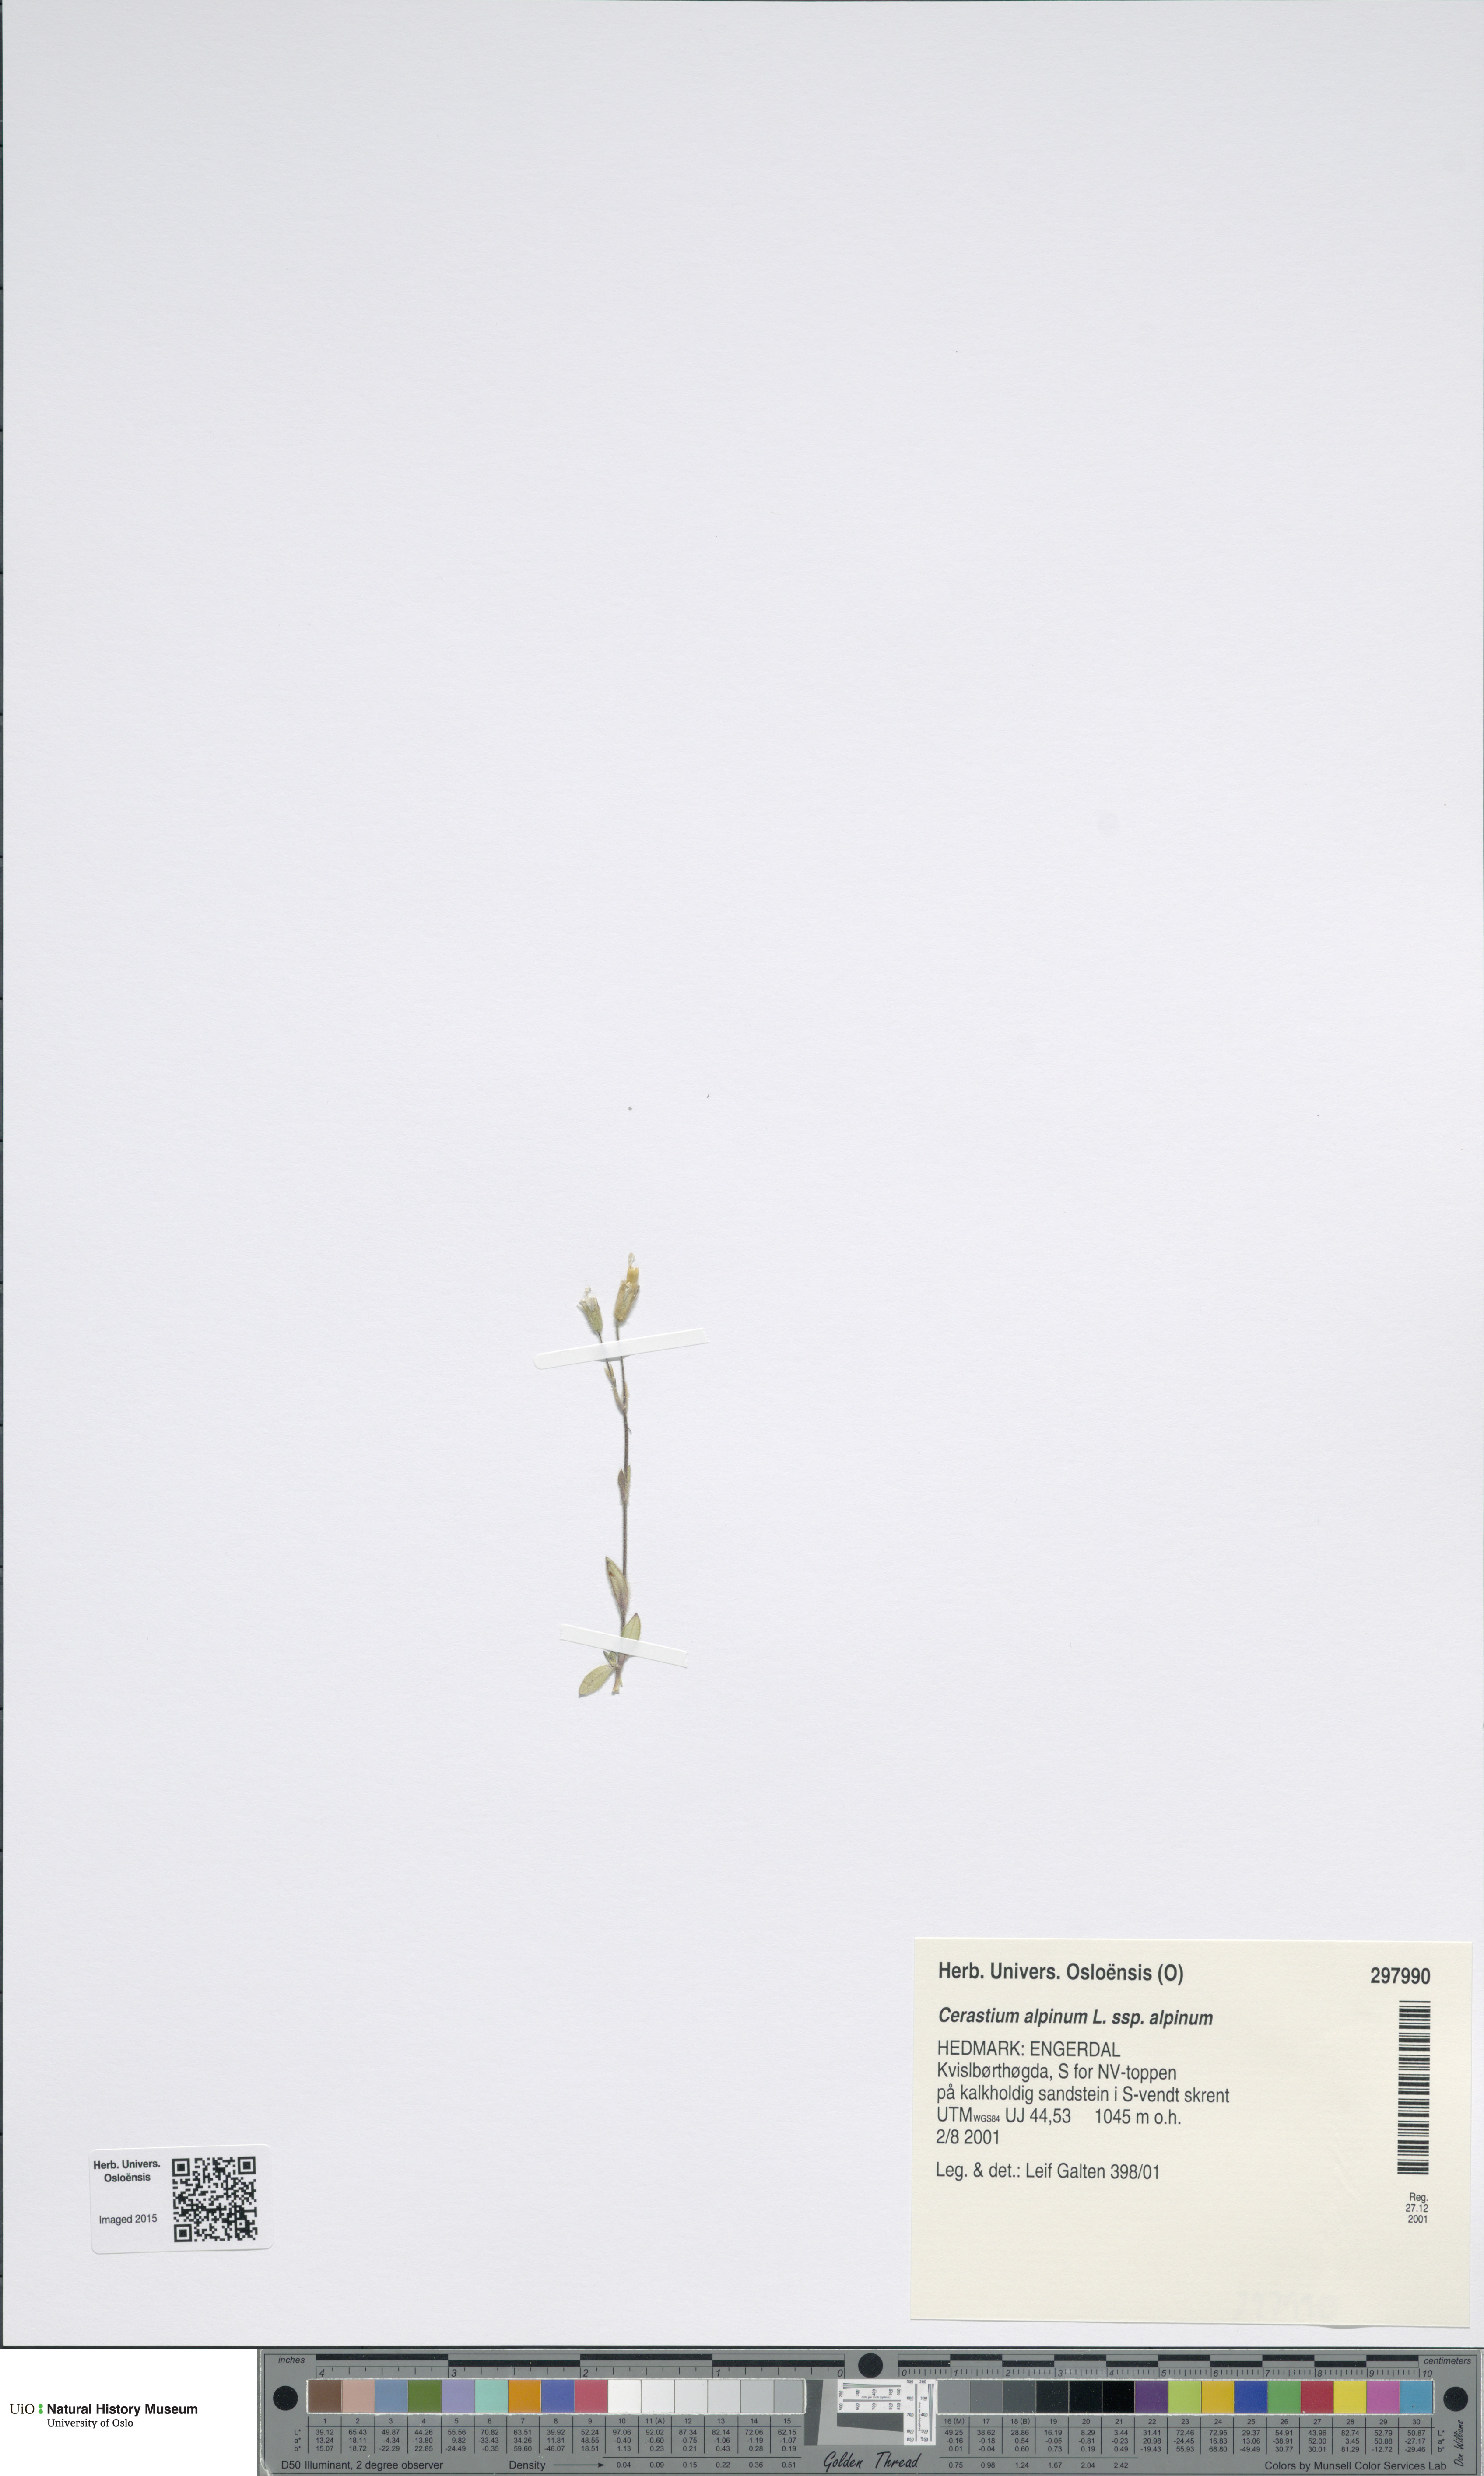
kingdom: Plantae
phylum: Tracheophyta
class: Magnoliopsida
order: Caryophyllales
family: Caryophyllaceae
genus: Cerastium
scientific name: Cerastium alpinum
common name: Alpine mouse-ear
